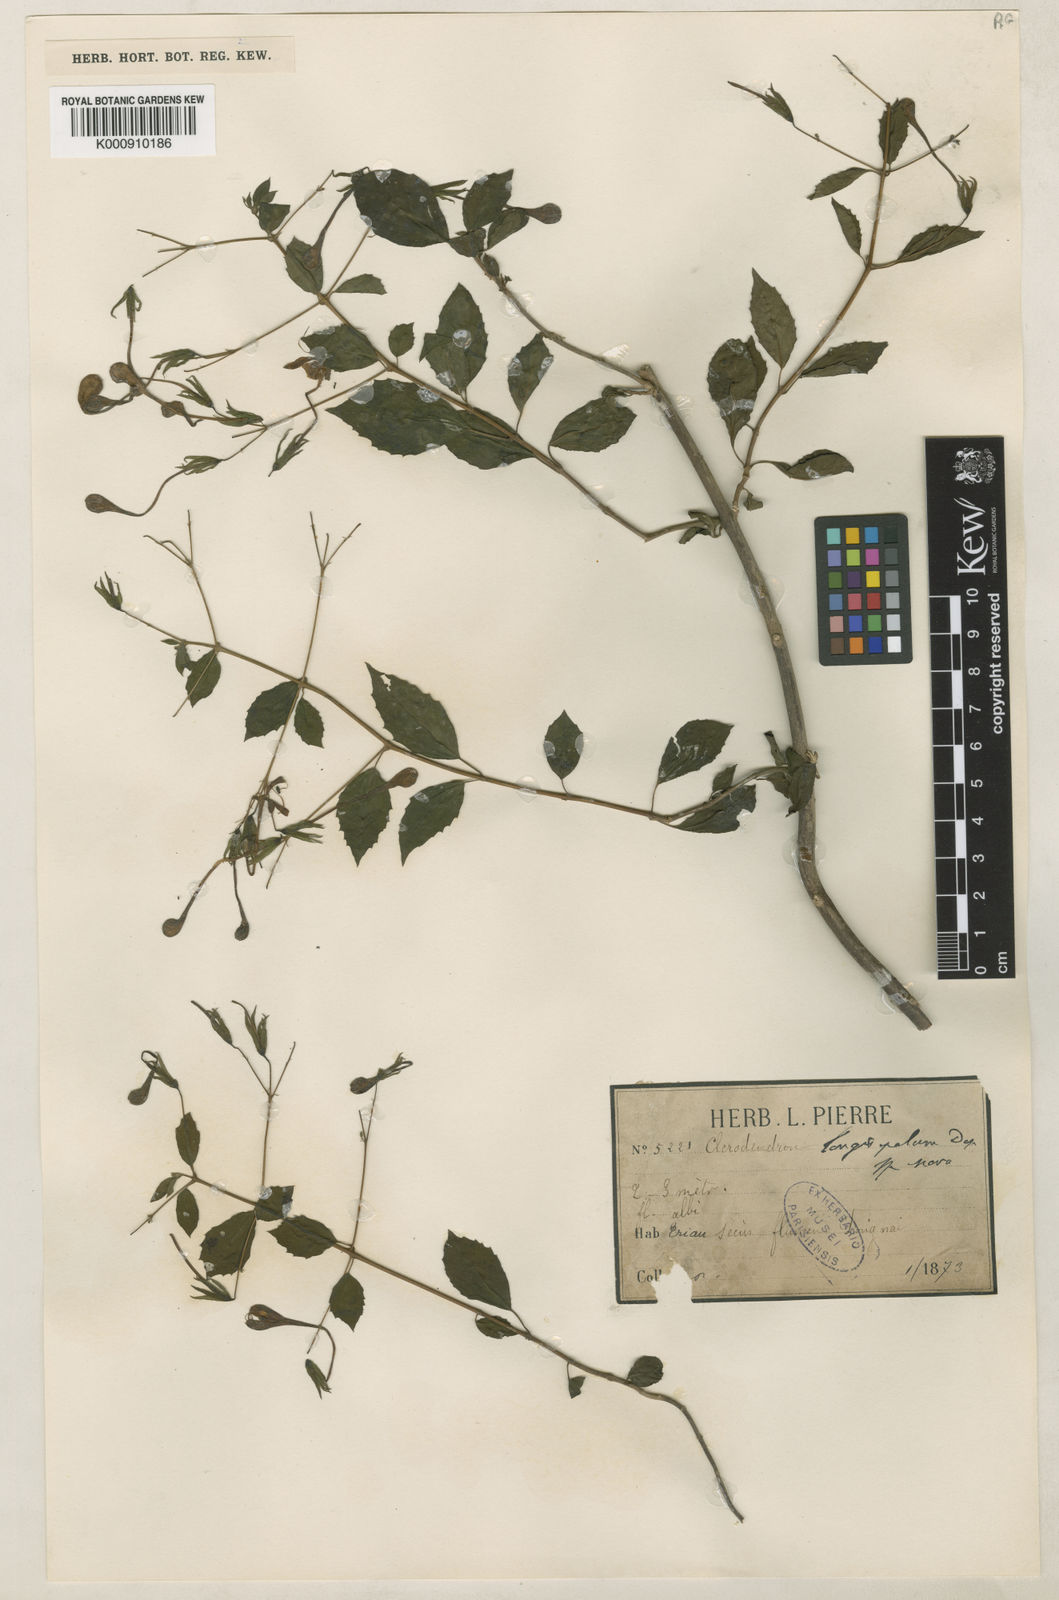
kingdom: Plantae
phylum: Tracheophyta
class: Magnoliopsida
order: Lamiales
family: Lamiaceae
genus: Clerodendrum
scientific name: Clerodendrum longisepalum
